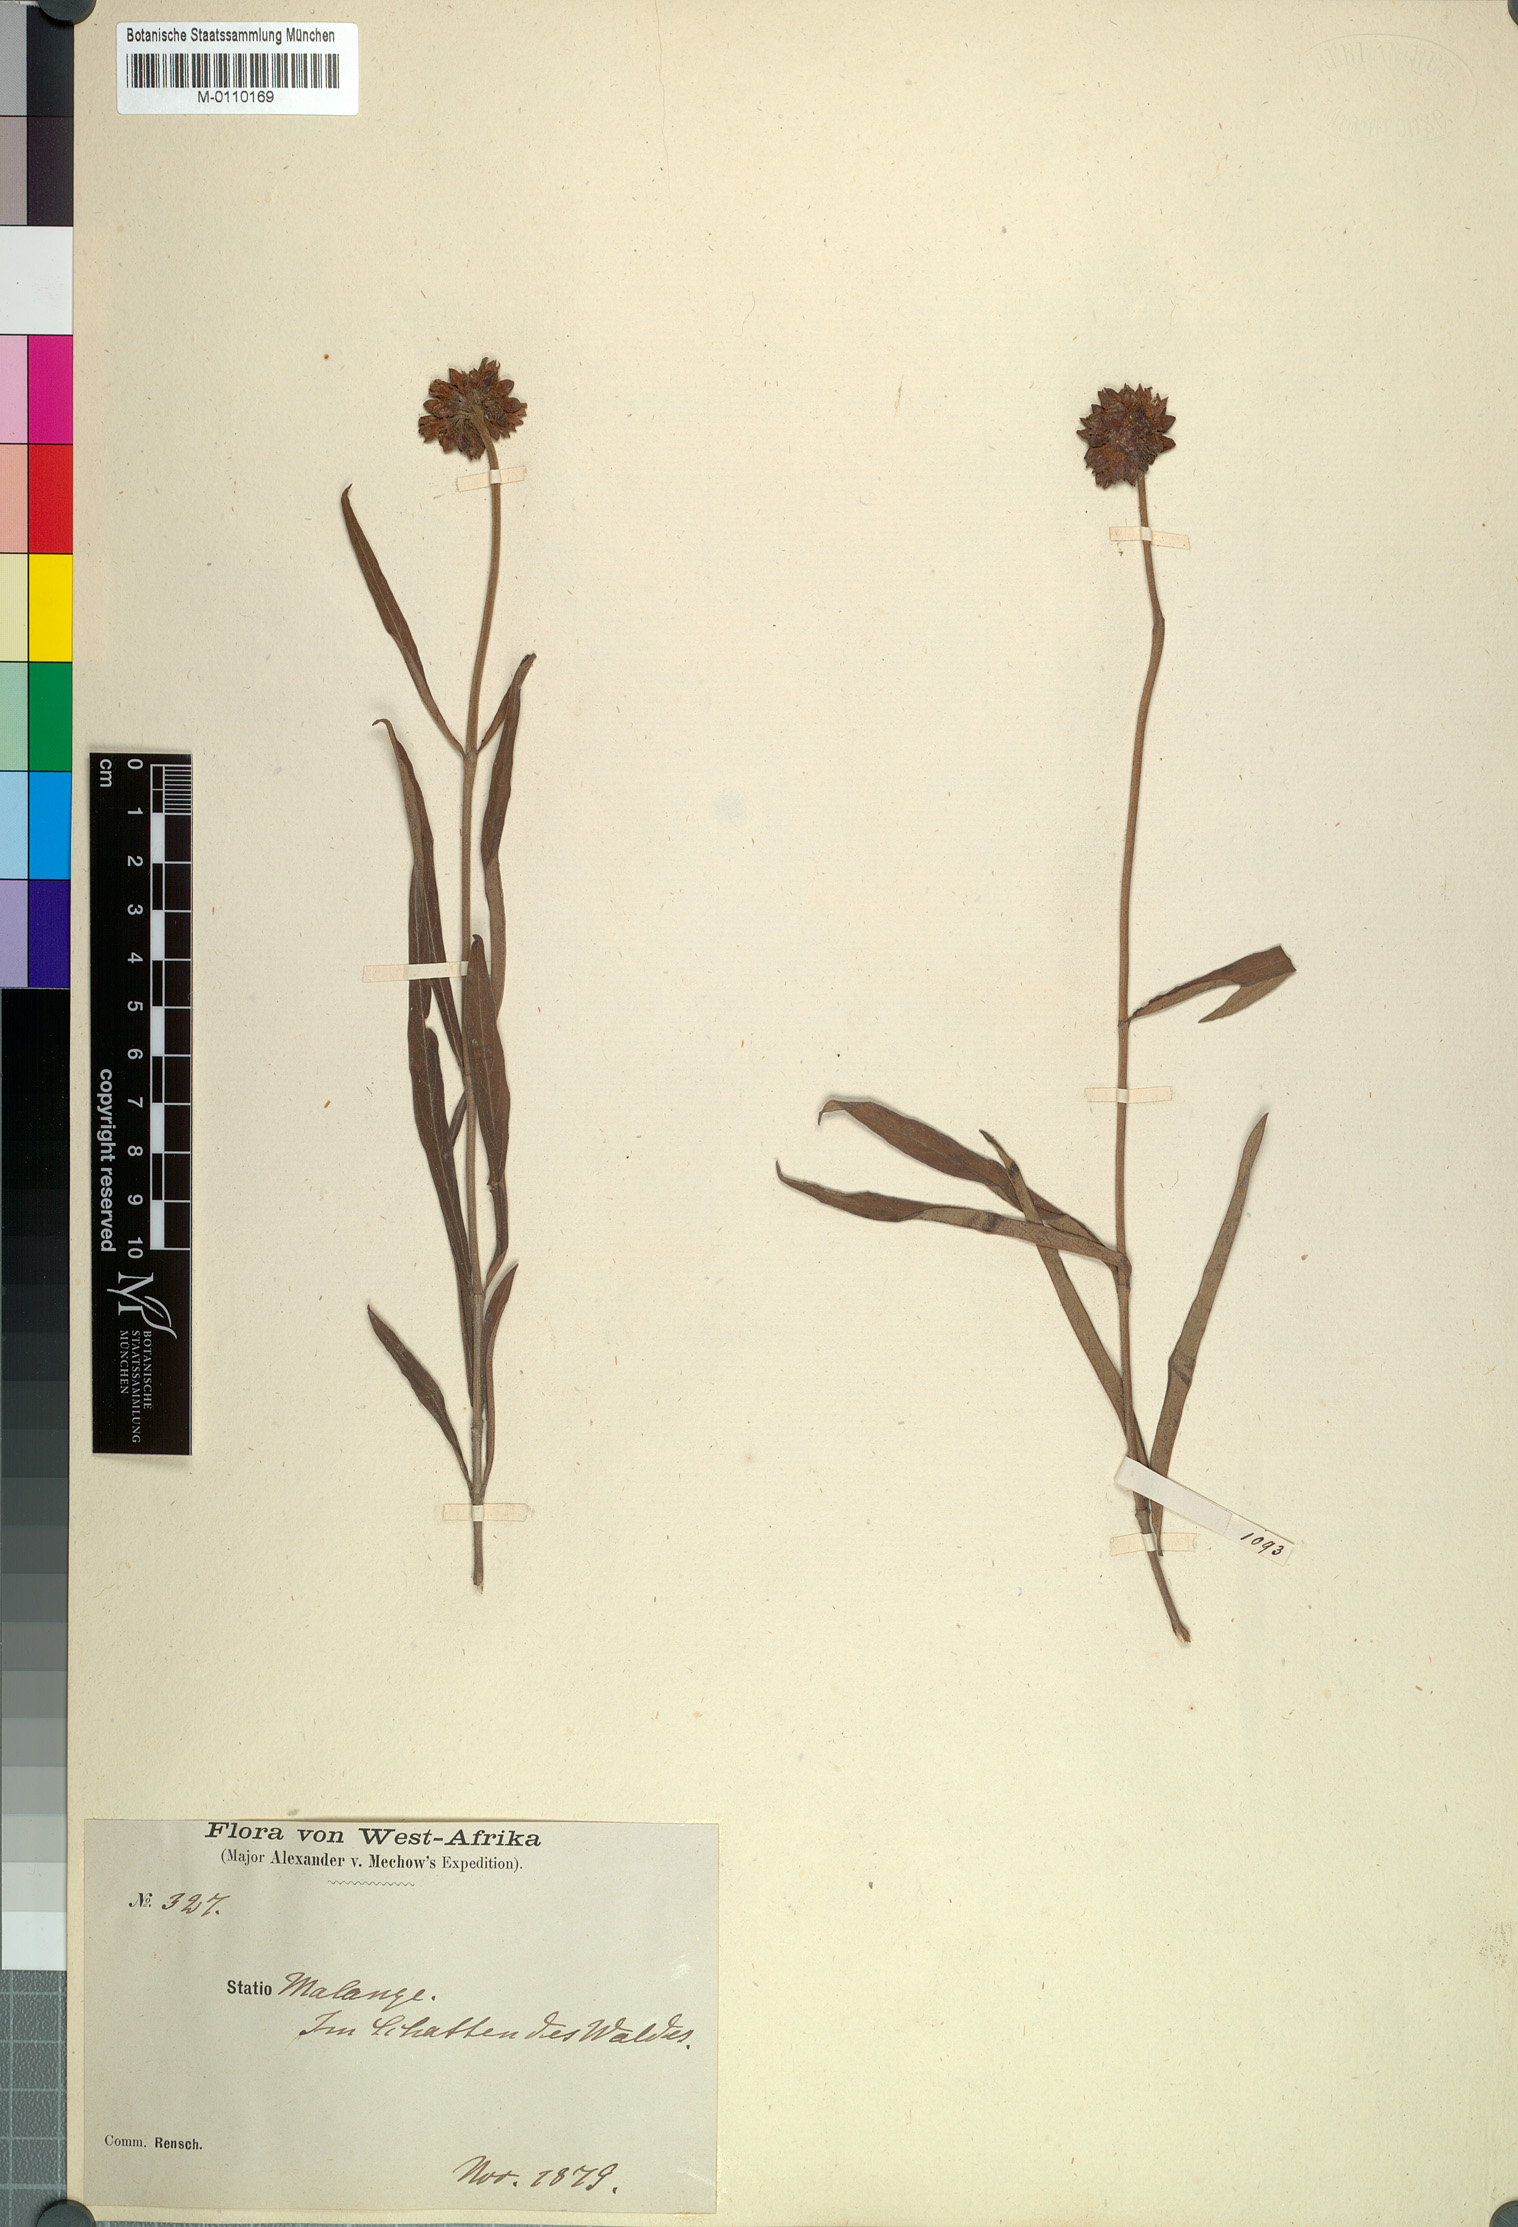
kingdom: Plantae
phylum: Tracheophyta
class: Magnoliopsida
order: Gentianales
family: Apocynaceae
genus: Raphionacme
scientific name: Raphionacme globosa
